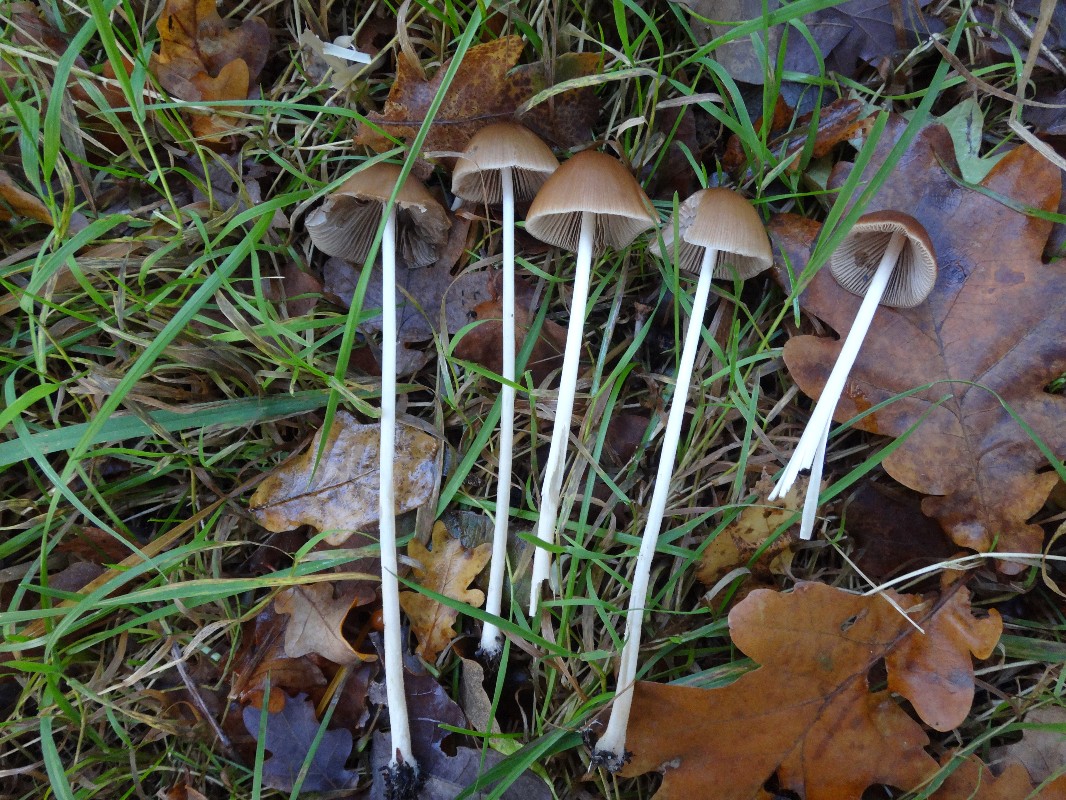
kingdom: Fungi
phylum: Basidiomycota
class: Agaricomycetes
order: Agaricales
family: Psathyrellaceae
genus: Parasola
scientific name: Parasola conopilea
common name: kegle-hjulhat
